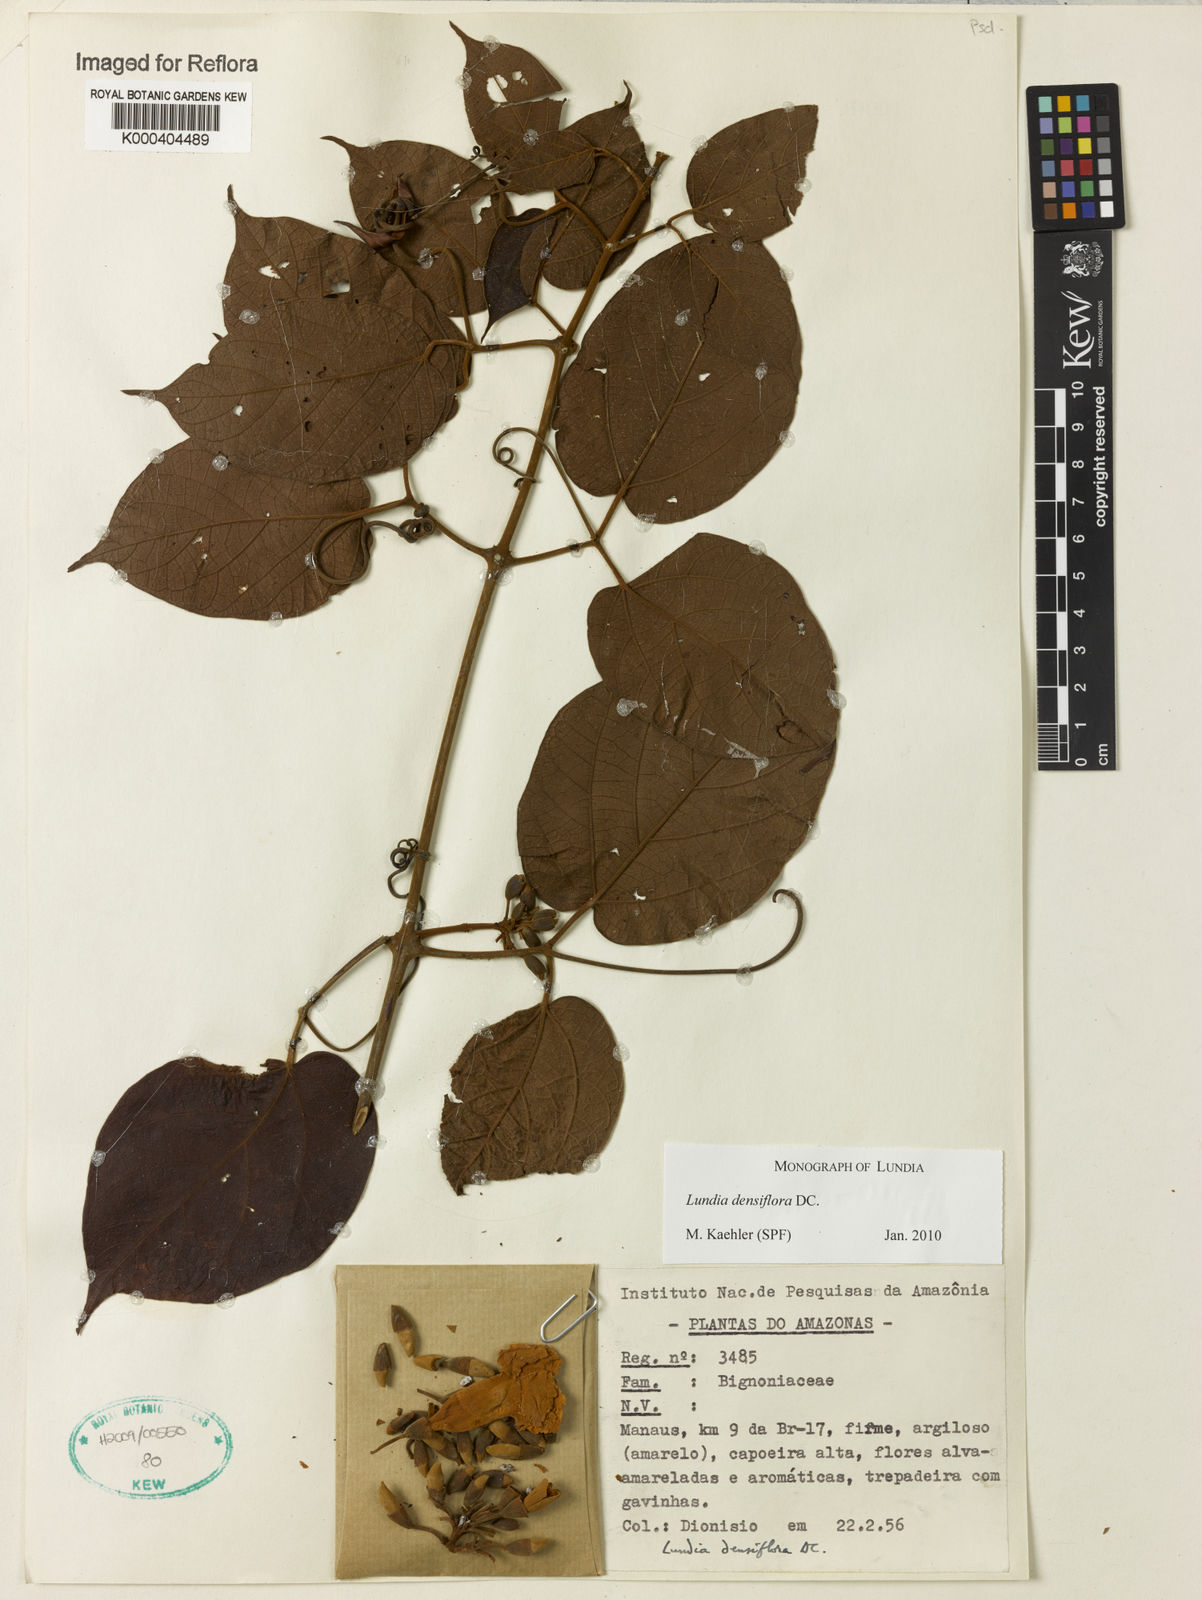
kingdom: Plantae
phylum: Tracheophyta
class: Magnoliopsida
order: Lamiales
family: Bignoniaceae
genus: Lundia
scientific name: Lundia densiflora
